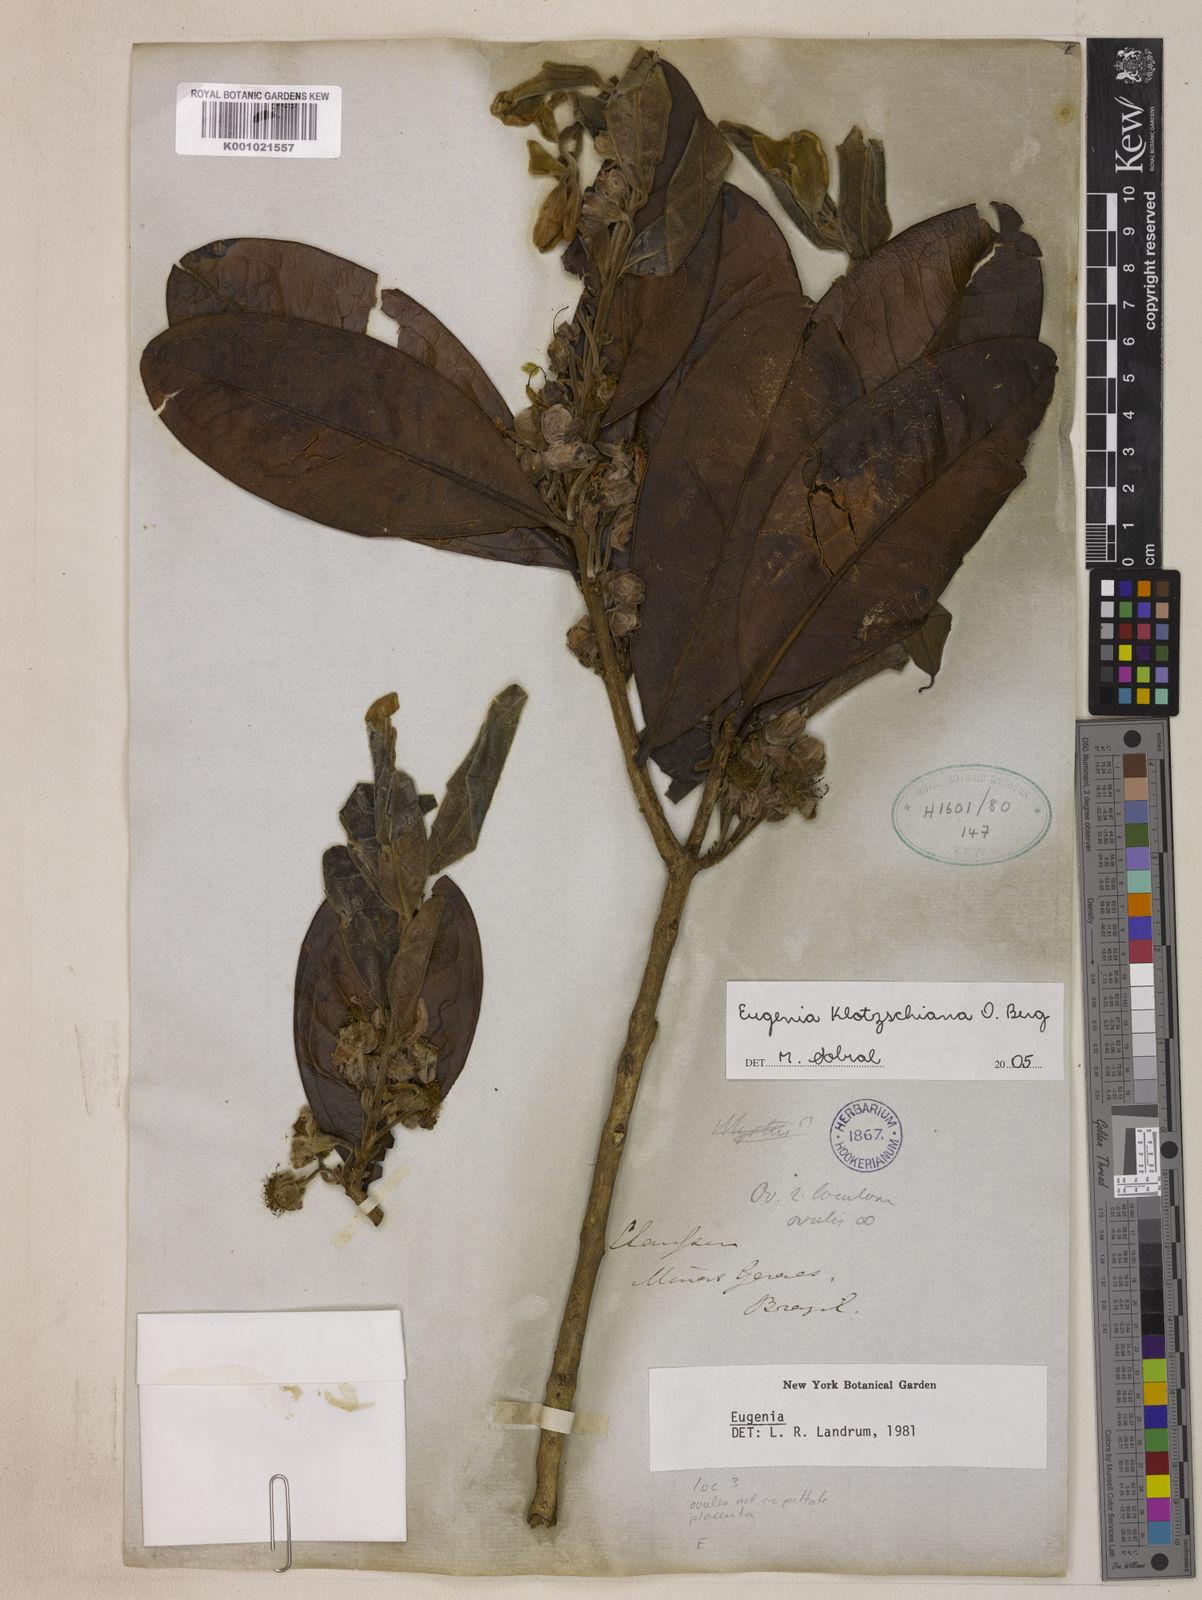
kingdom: Plantae
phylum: Tracheophyta
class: Magnoliopsida
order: Myrtales
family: Myrtaceae
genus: Eugenia
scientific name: Eugenia klotzschiana
